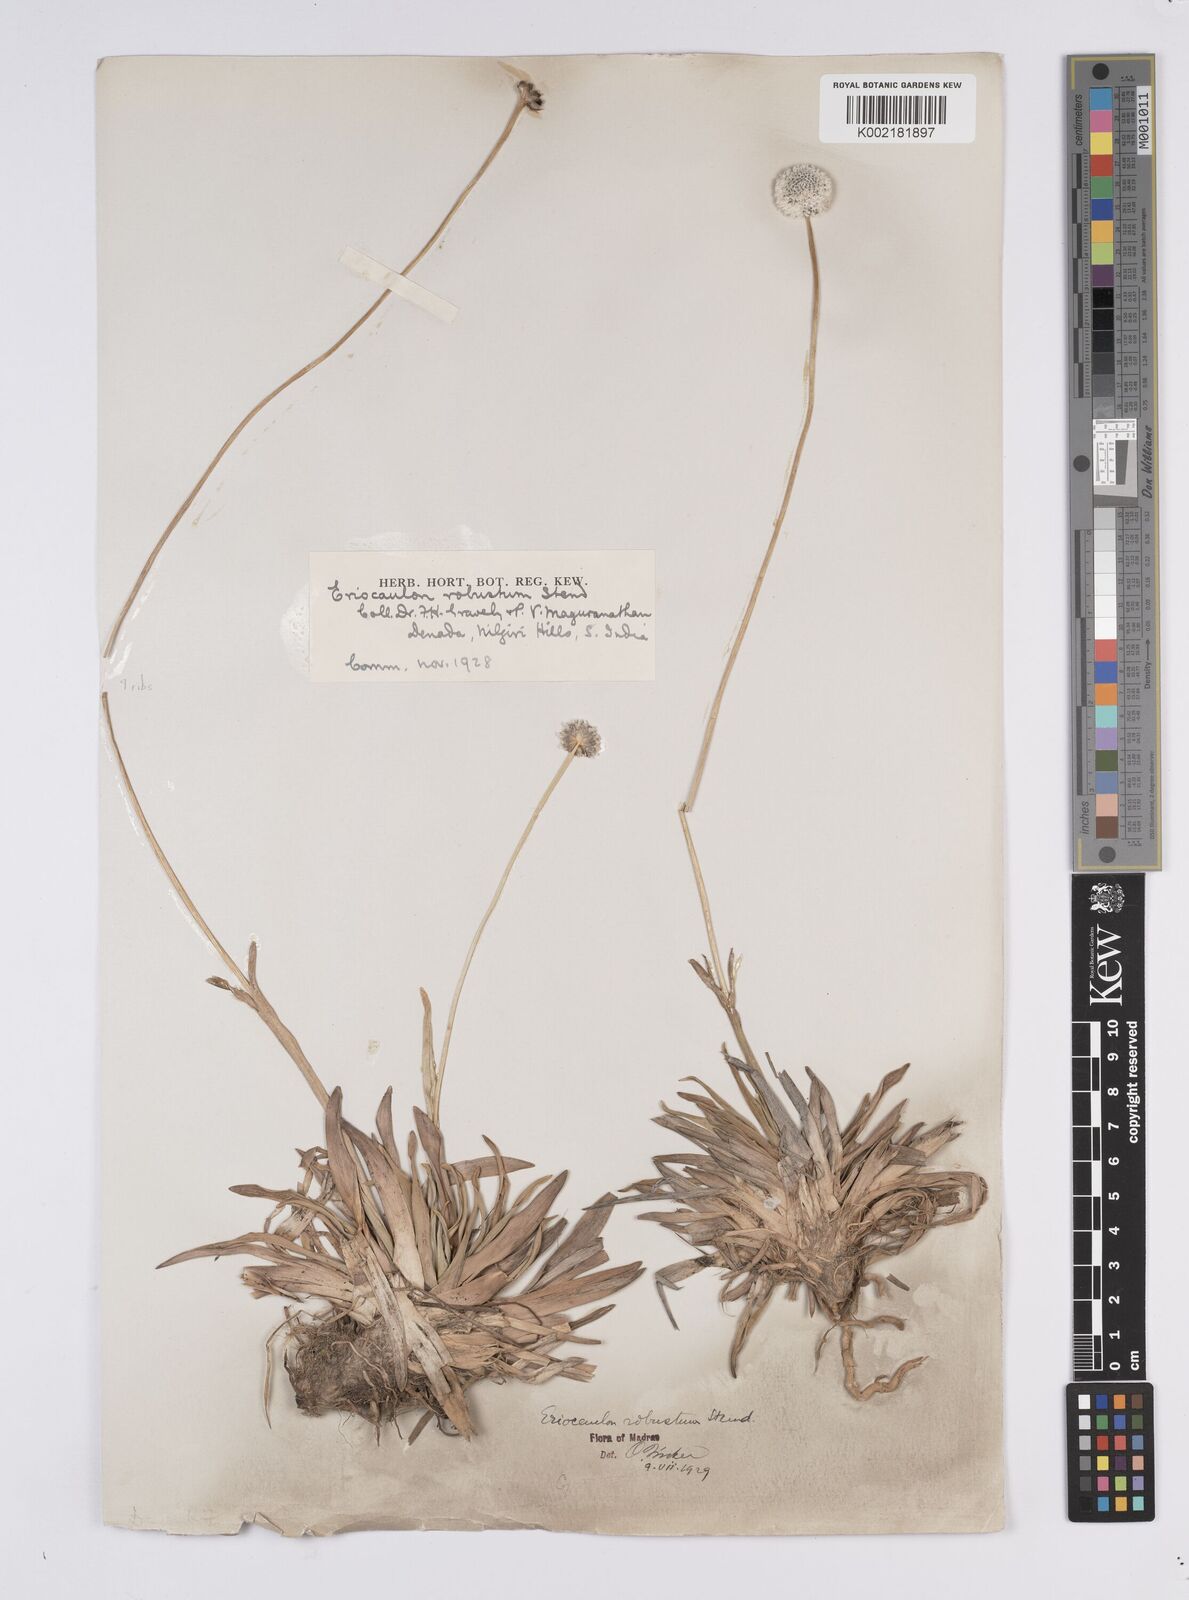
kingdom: Plantae
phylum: Tracheophyta
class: Liliopsida
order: Poales
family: Eriocaulaceae
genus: Eriocaulon
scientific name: Eriocaulon robustum
